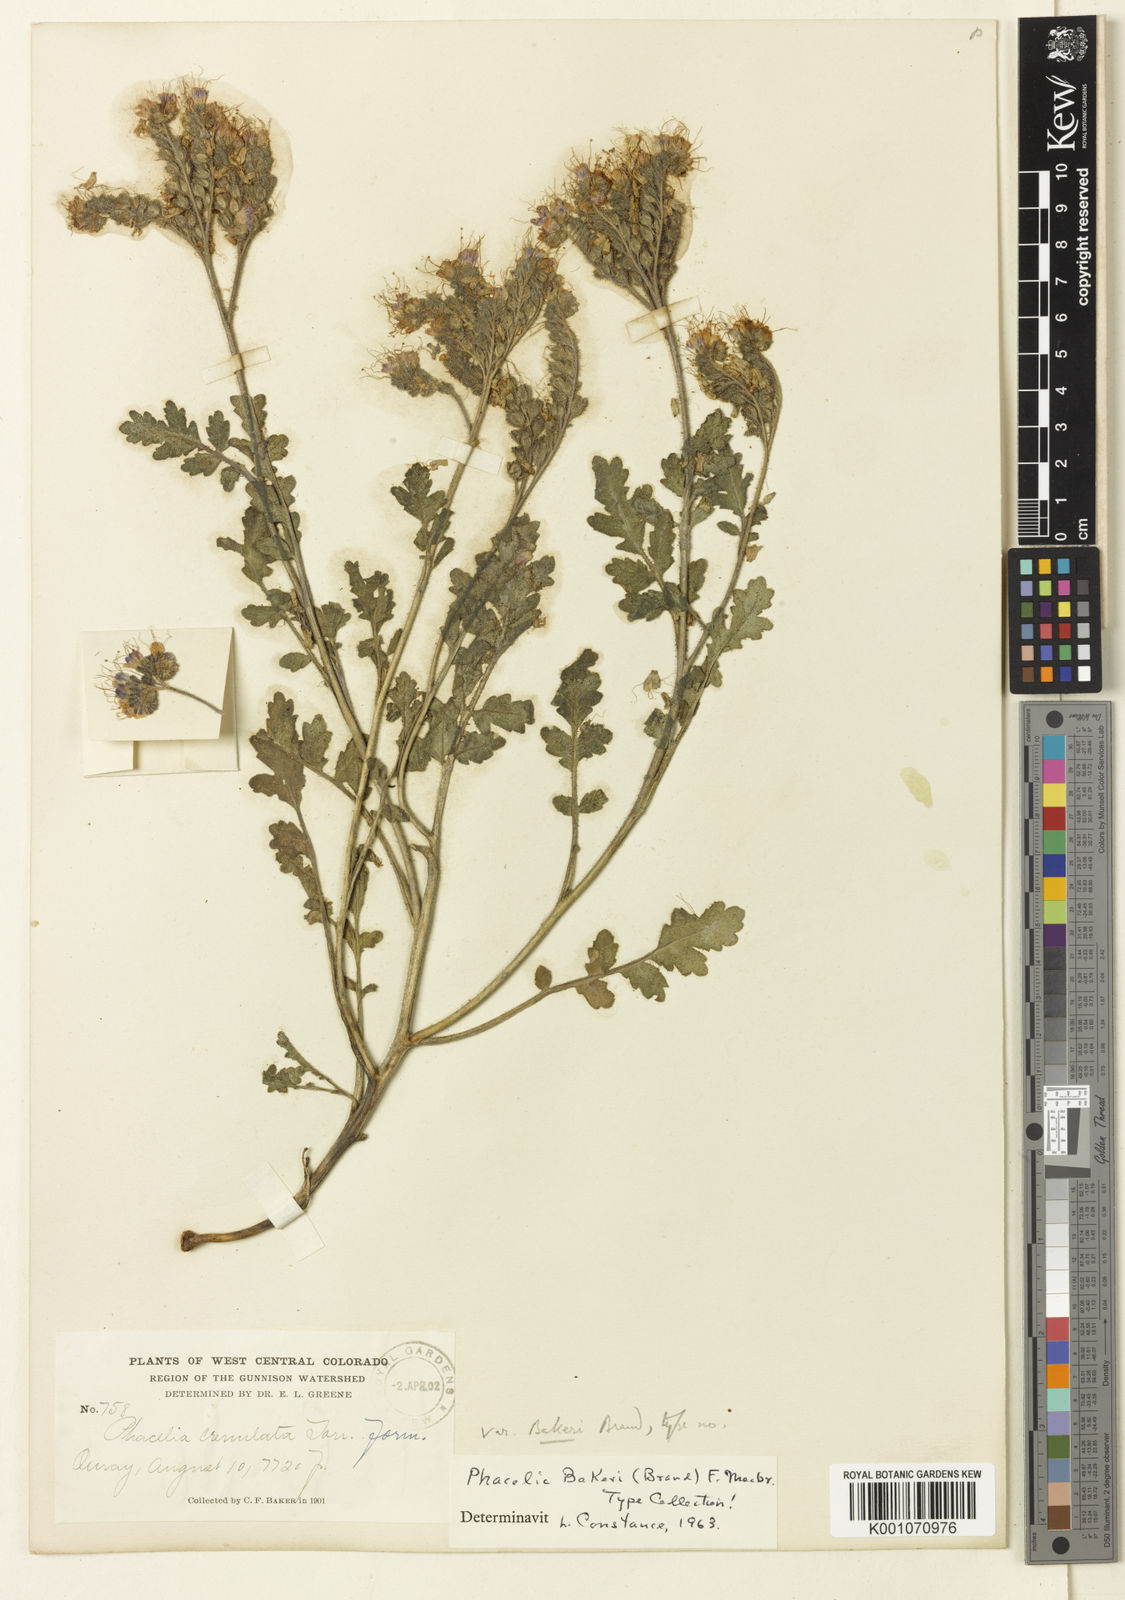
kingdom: Plantae
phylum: Tracheophyta
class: Magnoliopsida
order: Boraginales
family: Hydrophyllaceae
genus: Phacelia
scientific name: Phacelia bakeri
